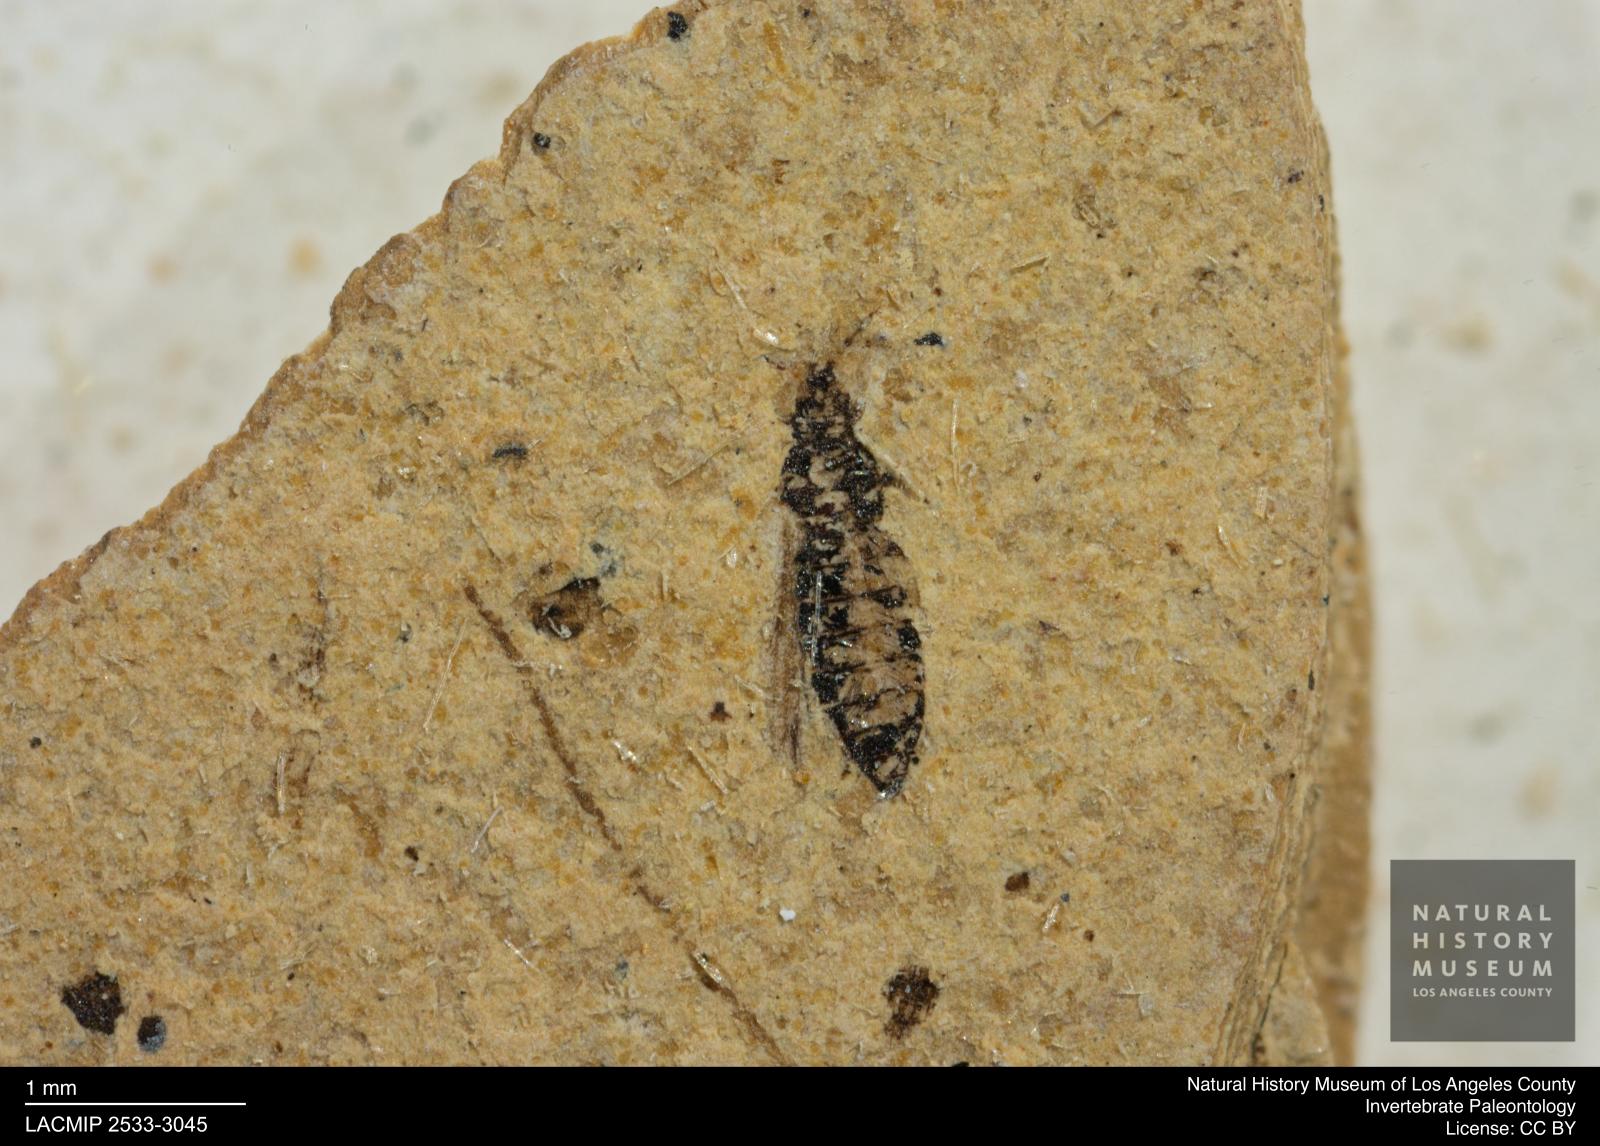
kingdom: Animalia
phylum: Arthropoda
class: Insecta
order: Thysanoptera
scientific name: Thysanoptera
